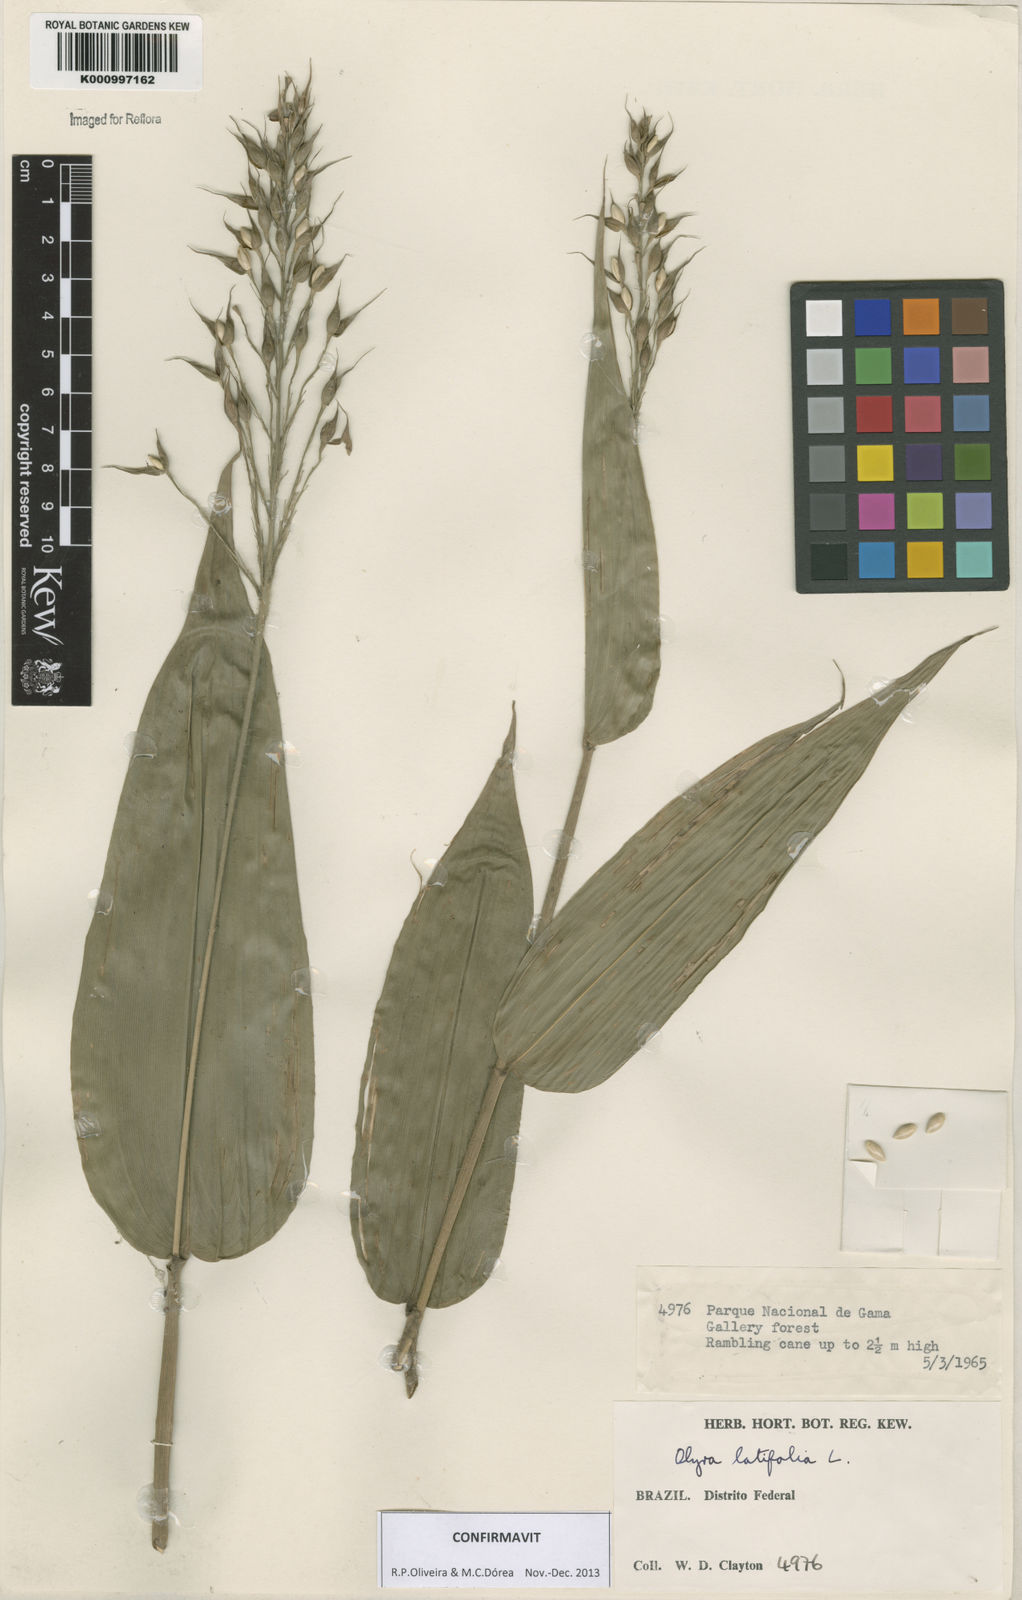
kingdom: Plantae
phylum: Tracheophyta
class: Liliopsida
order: Poales
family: Poaceae
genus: Olyra
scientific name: Olyra latifolia
